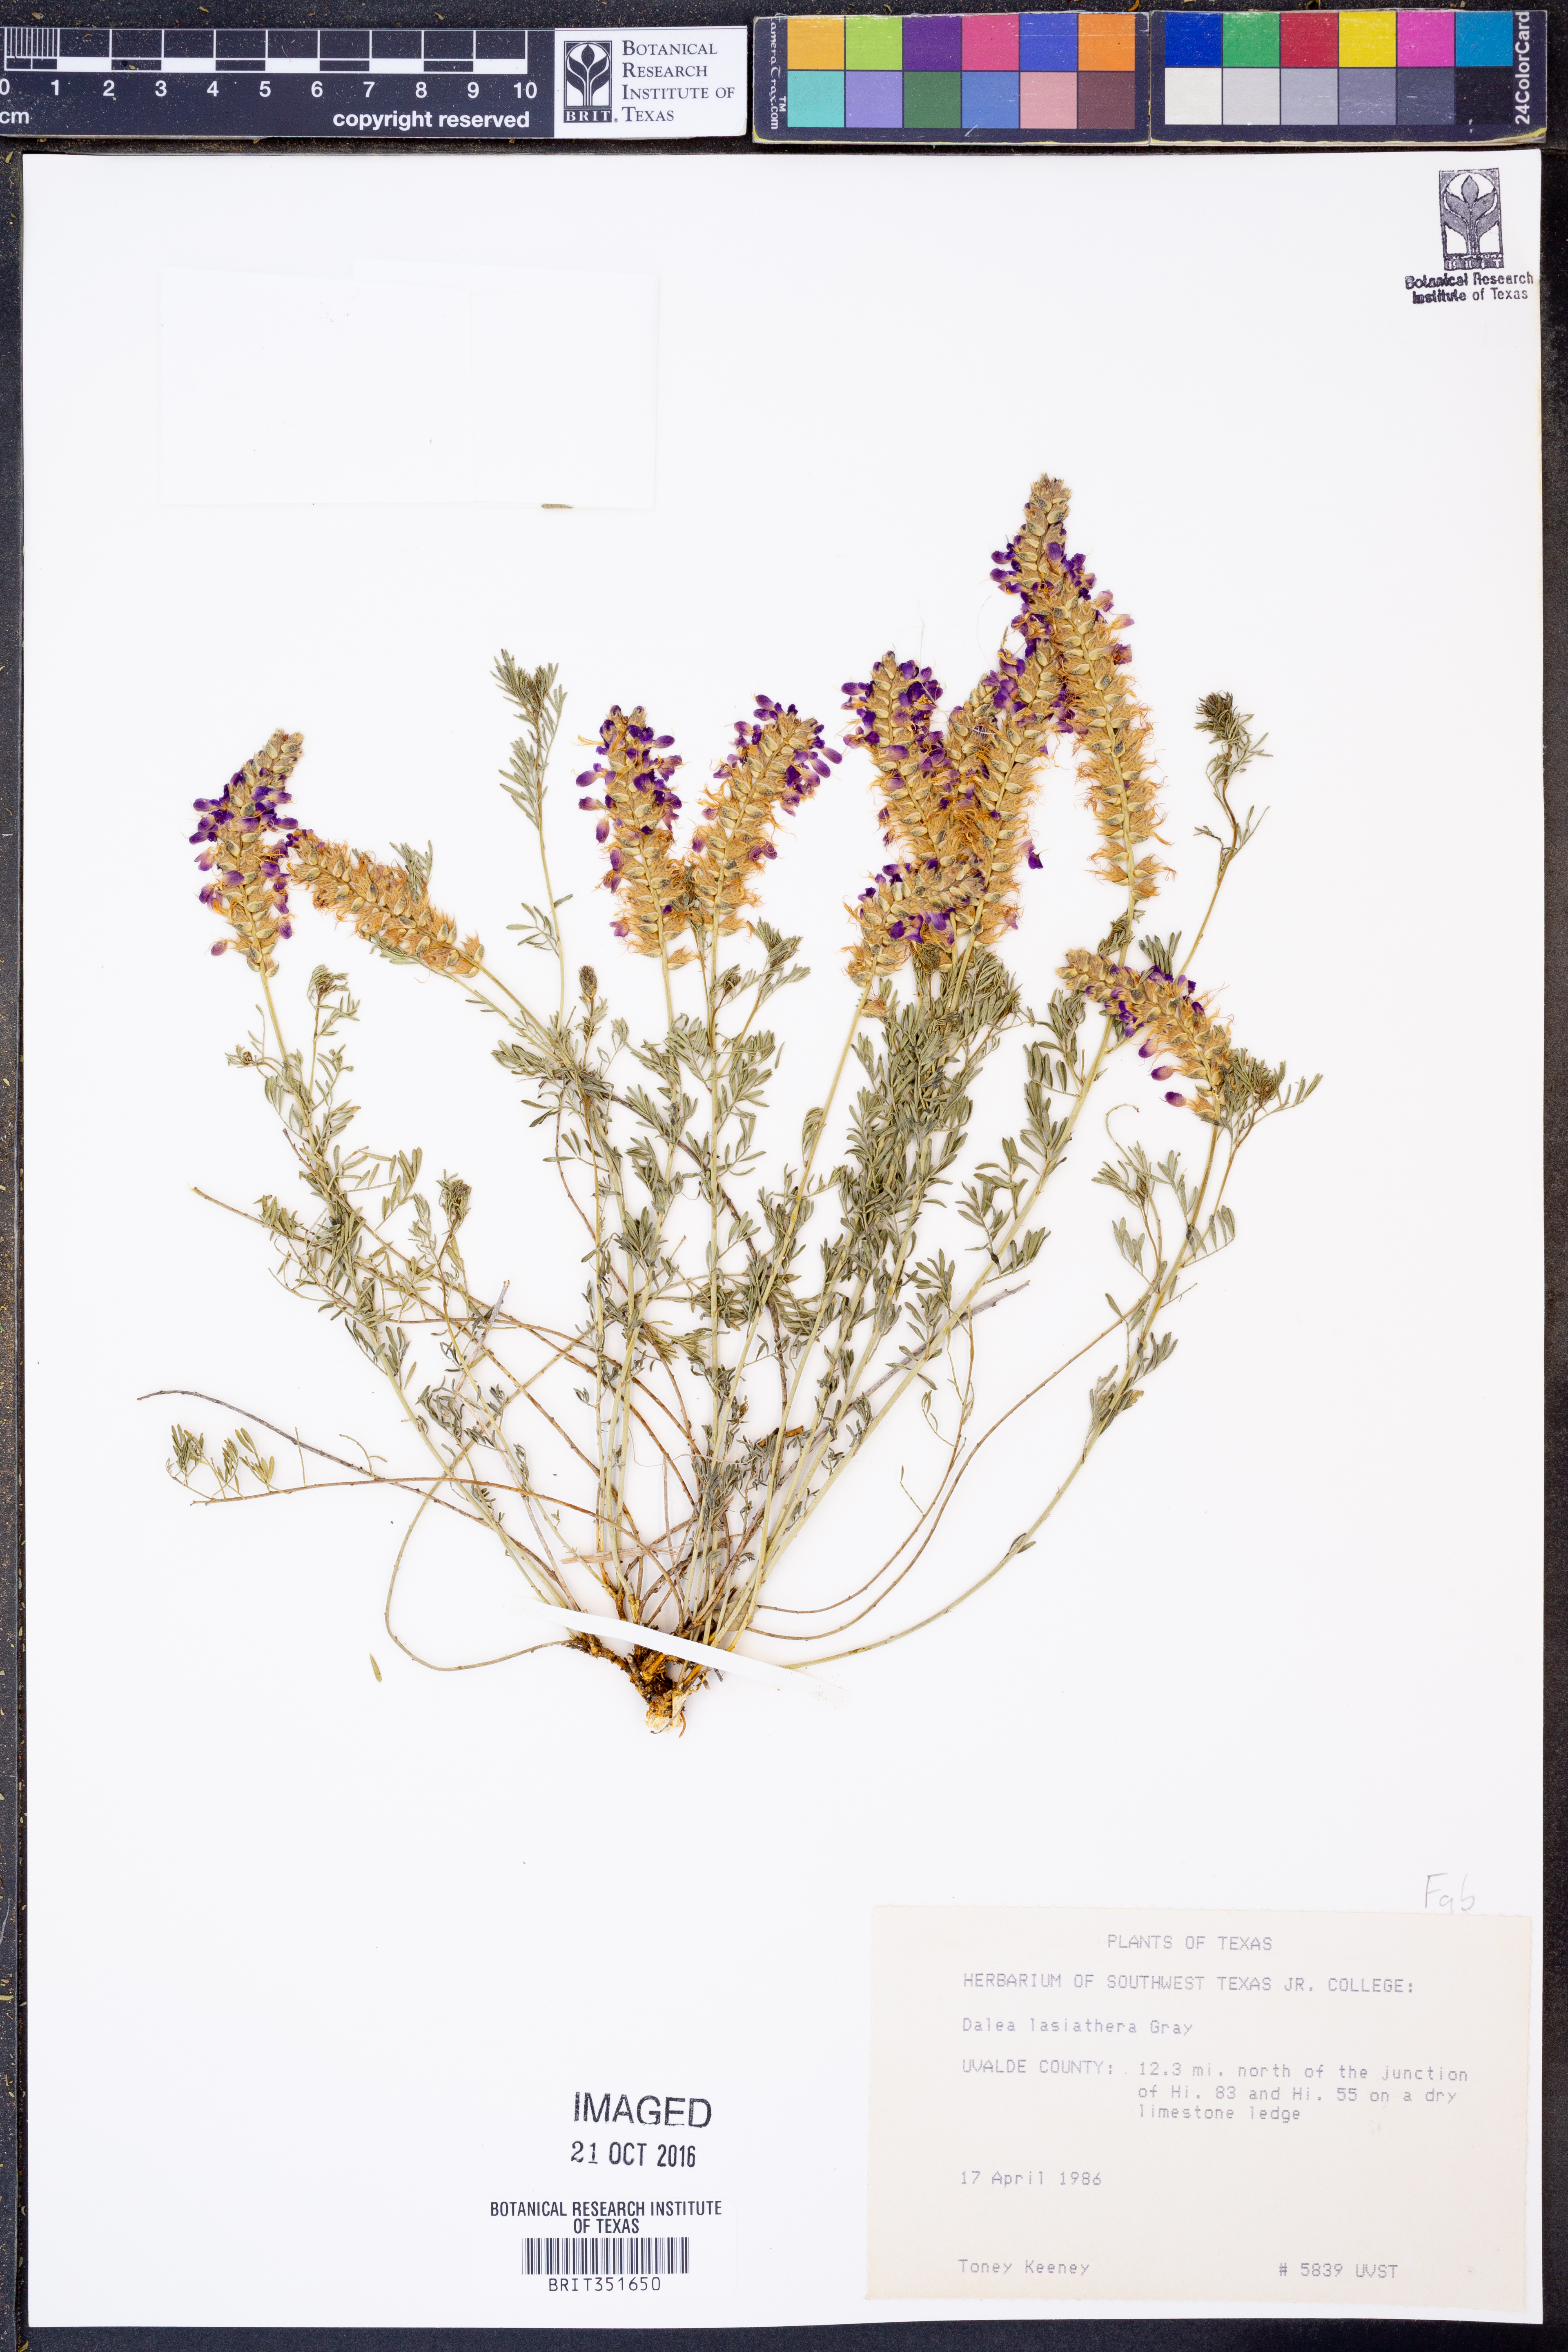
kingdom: Plantae
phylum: Tracheophyta
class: Magnoliopsida
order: Fabales
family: Fabaceae
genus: Dalea
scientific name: Dalea lasiathera
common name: Purple prairie-clover
